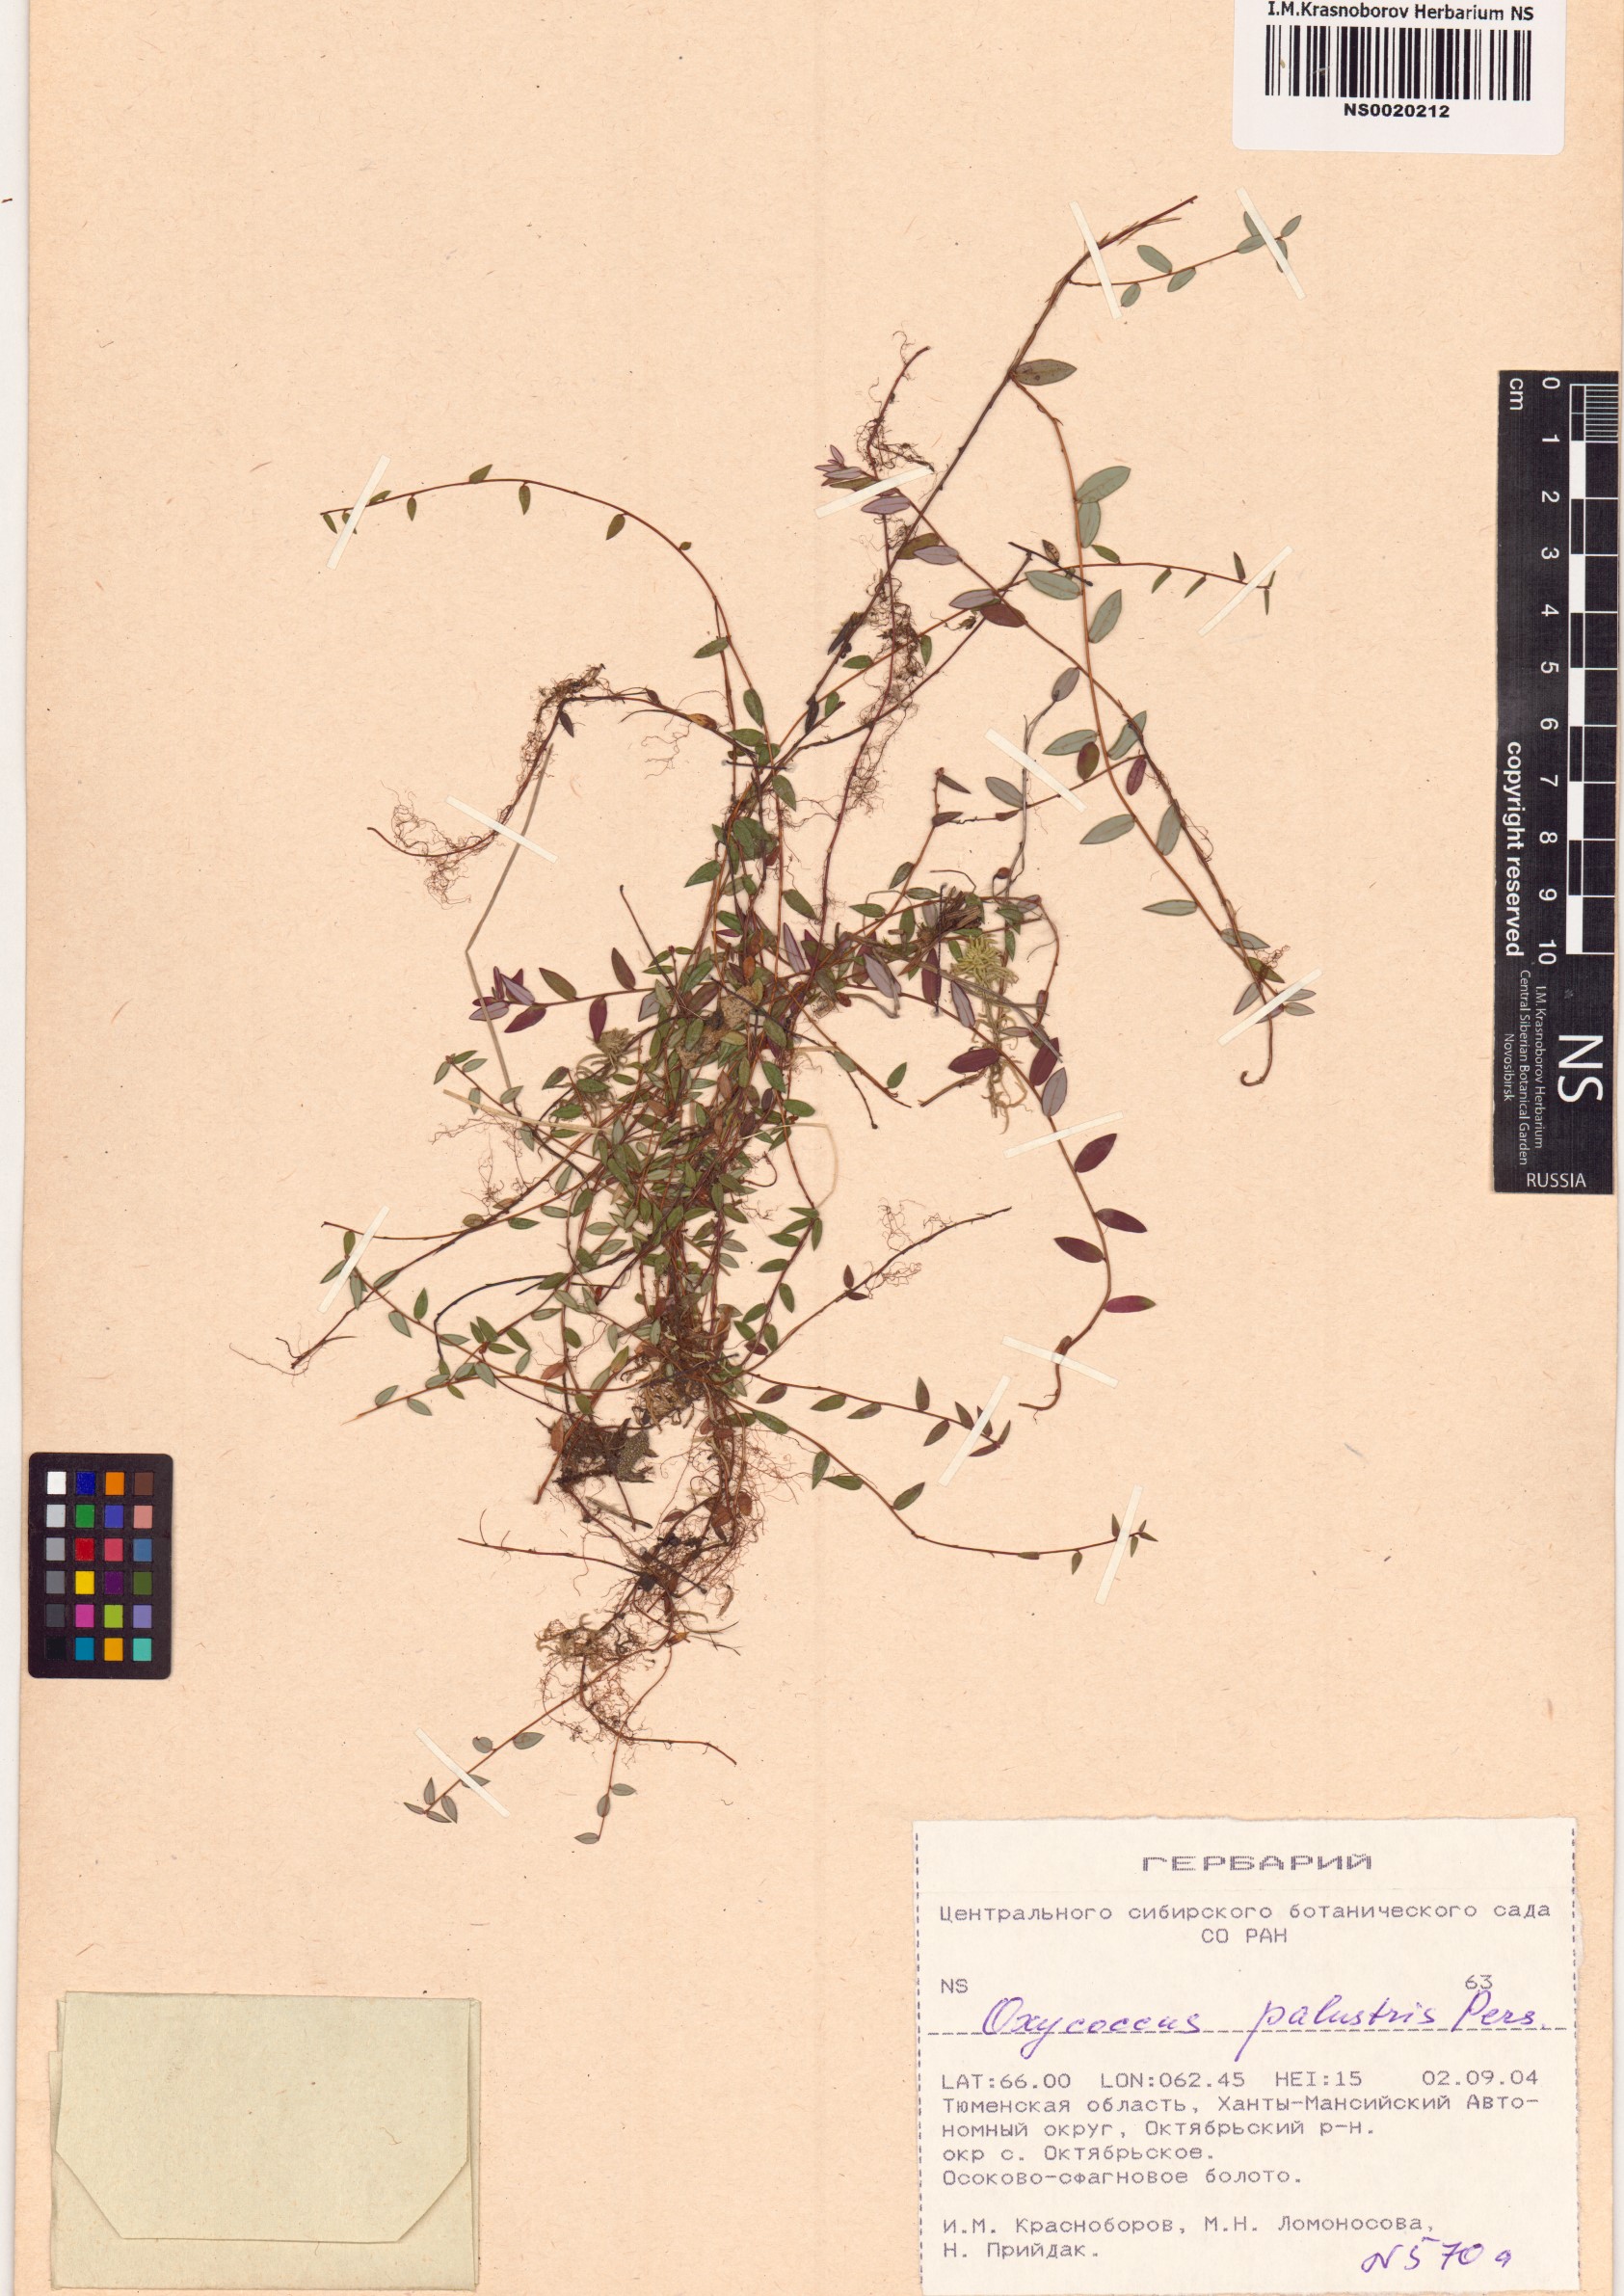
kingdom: Plantae
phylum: Tracheophyta
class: Magnoliopsida
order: Ericales
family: Ericaceae
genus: Vaccinium
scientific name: Vaccinium oxycoccos
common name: Cranberry
